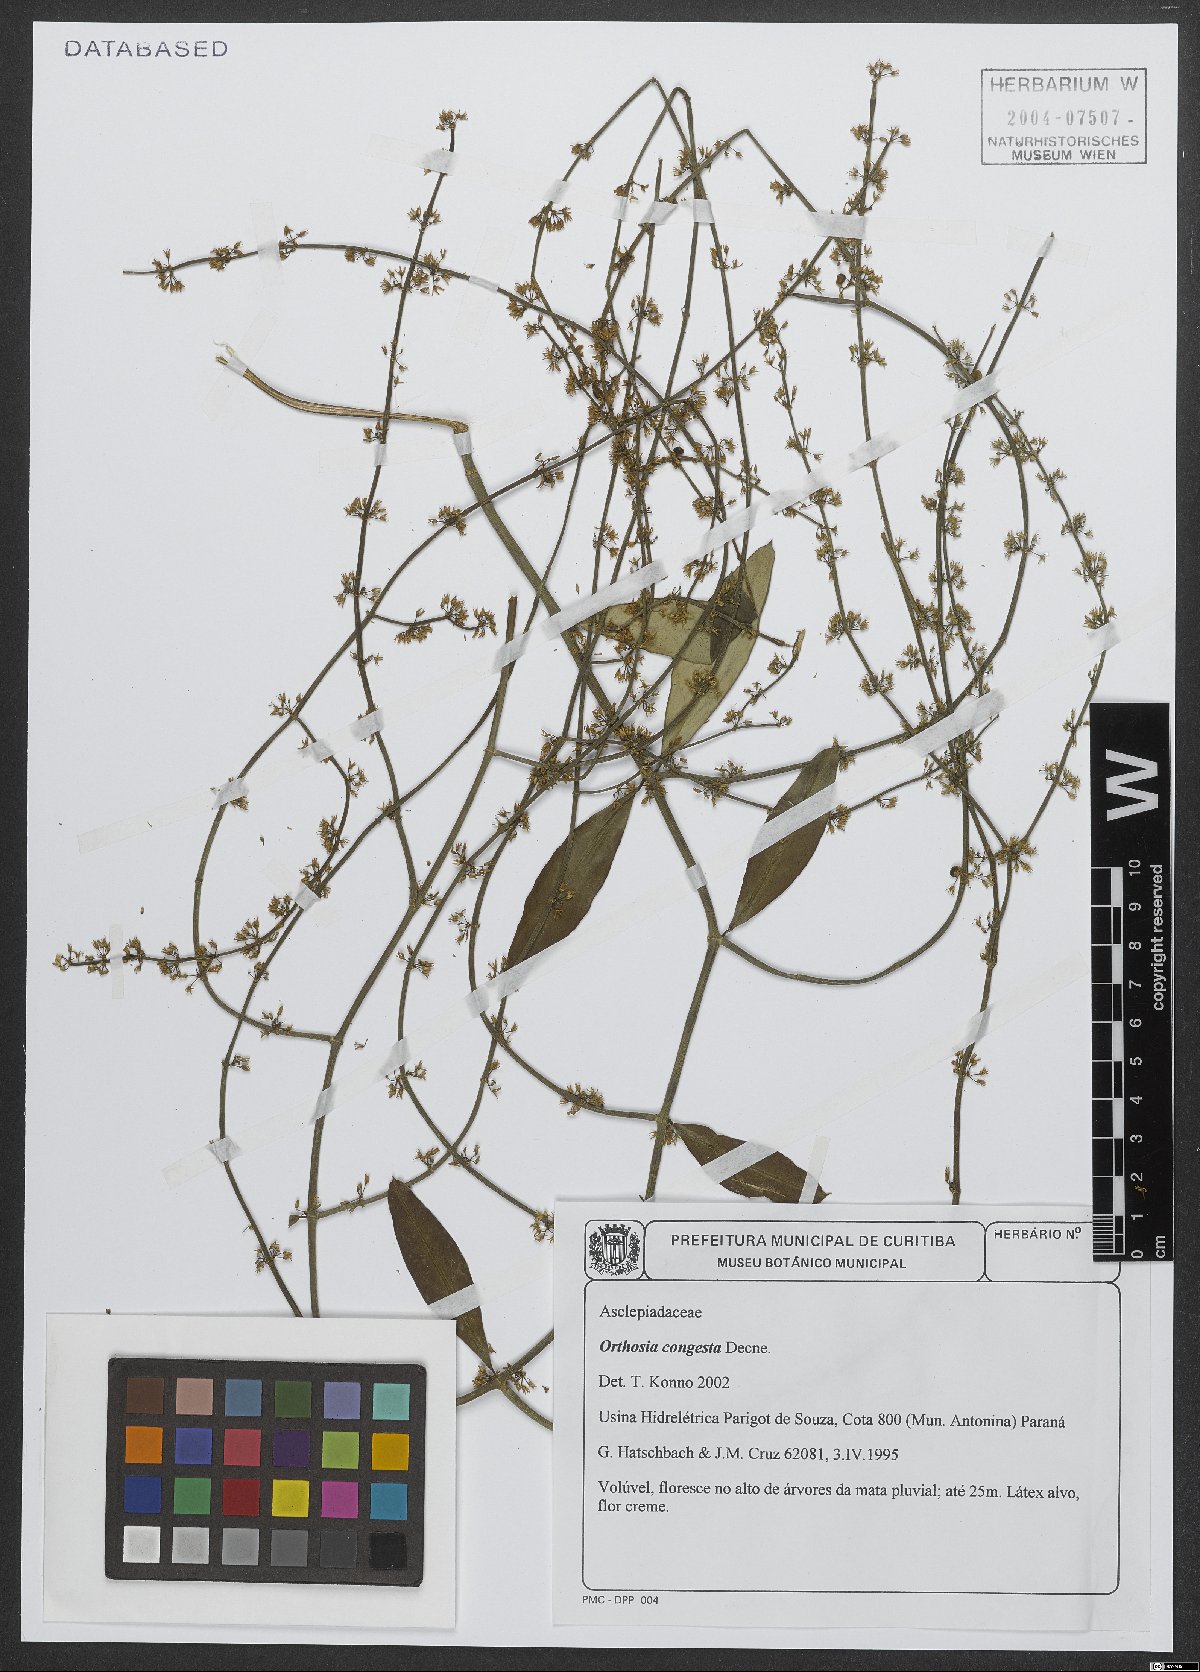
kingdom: Plantae
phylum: Tracheophyta
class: Magnoliopsida
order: Gentianales
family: Apocynaceae
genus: Orthosia
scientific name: Orthosia congesta
